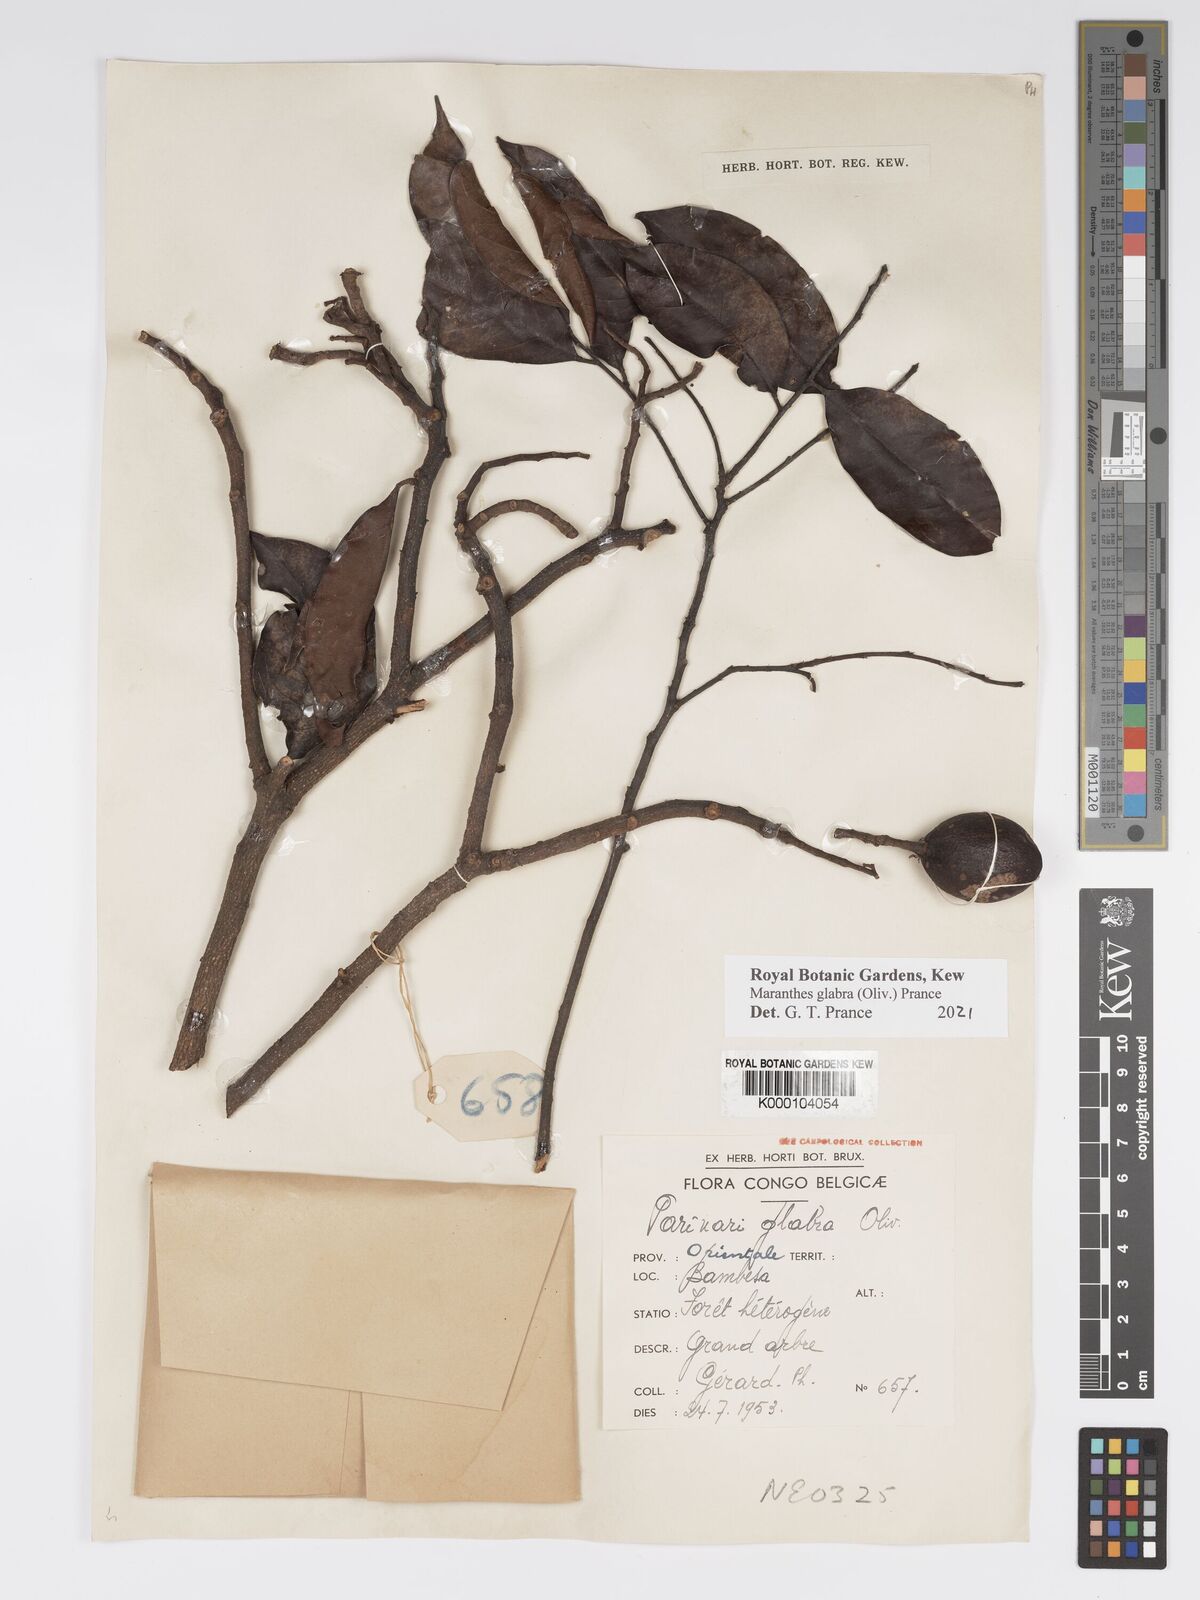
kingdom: Plantae
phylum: Tracheophyta
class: Magnoliopsida
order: Malpighiales
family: Chrysobalanaceae
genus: Maranthes
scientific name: Maranthes glabra
